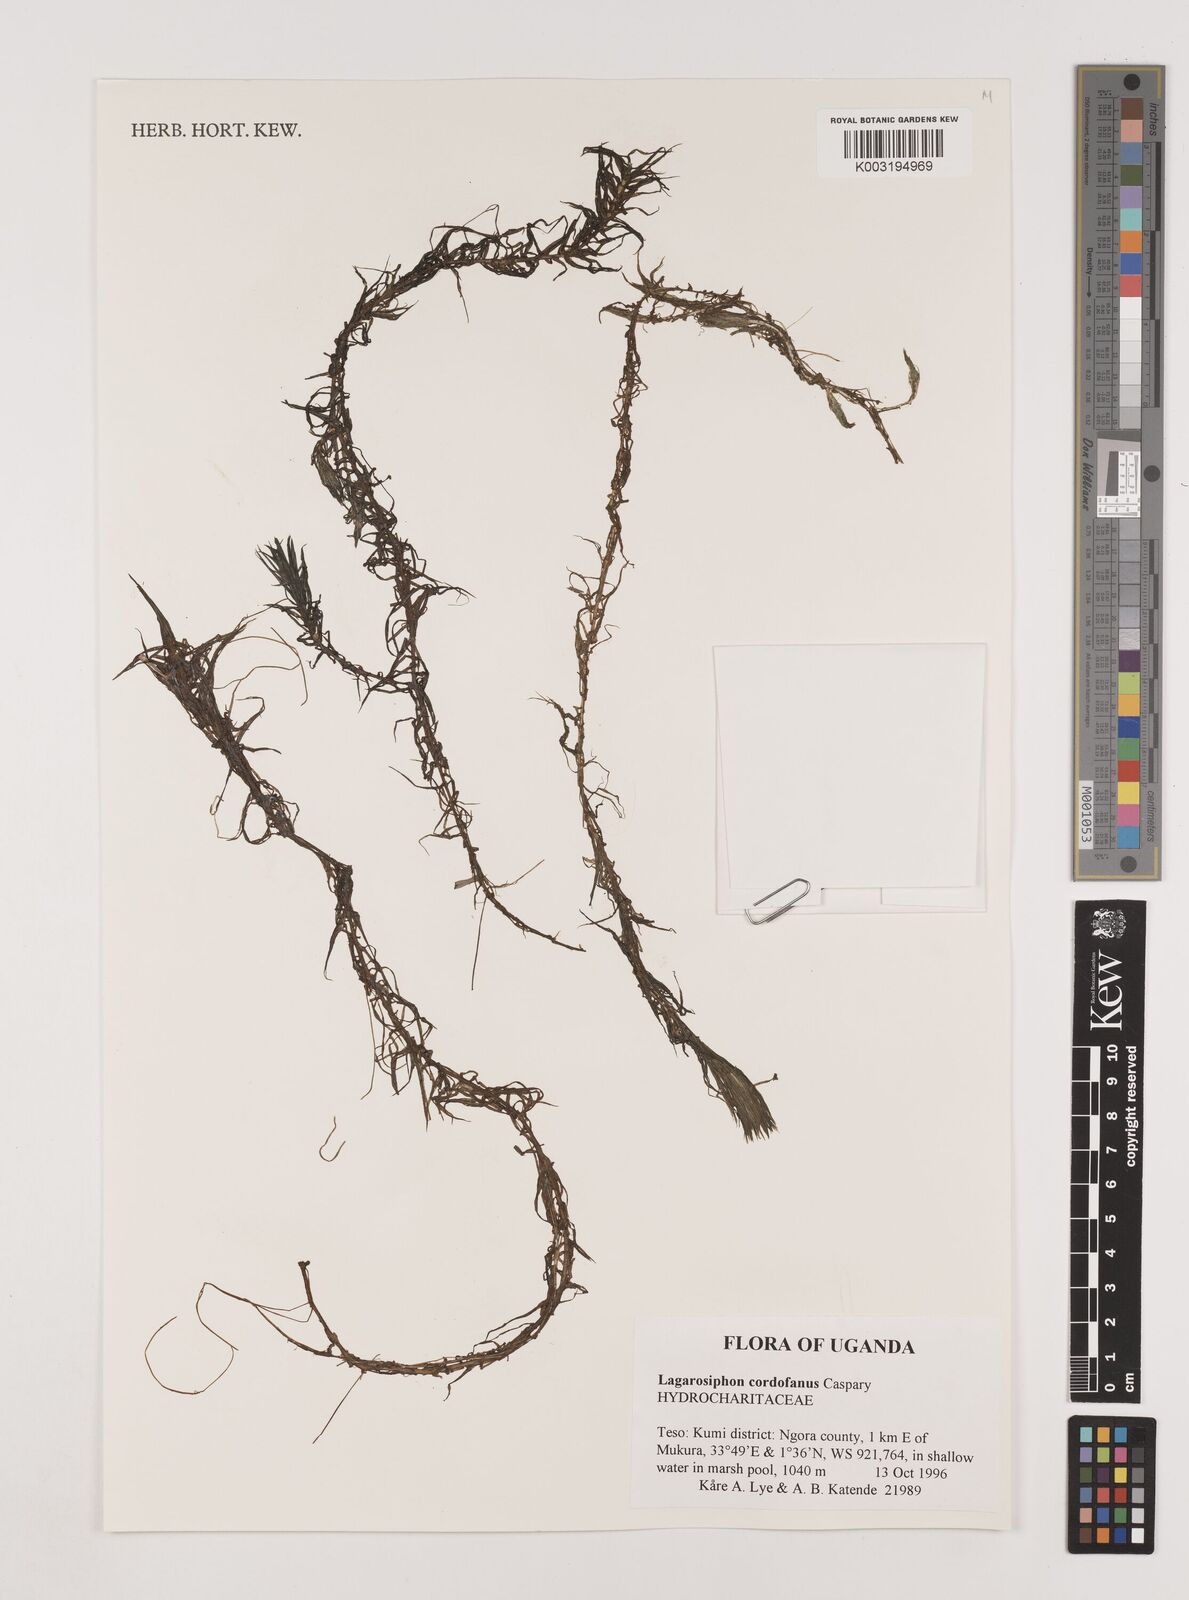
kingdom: Plantae
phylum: Tracheophyta
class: Liliopsida
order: Alismatales
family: Hydrocharitaceae
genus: Lagarosiphon
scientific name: Lagarosiphon cordofanus
